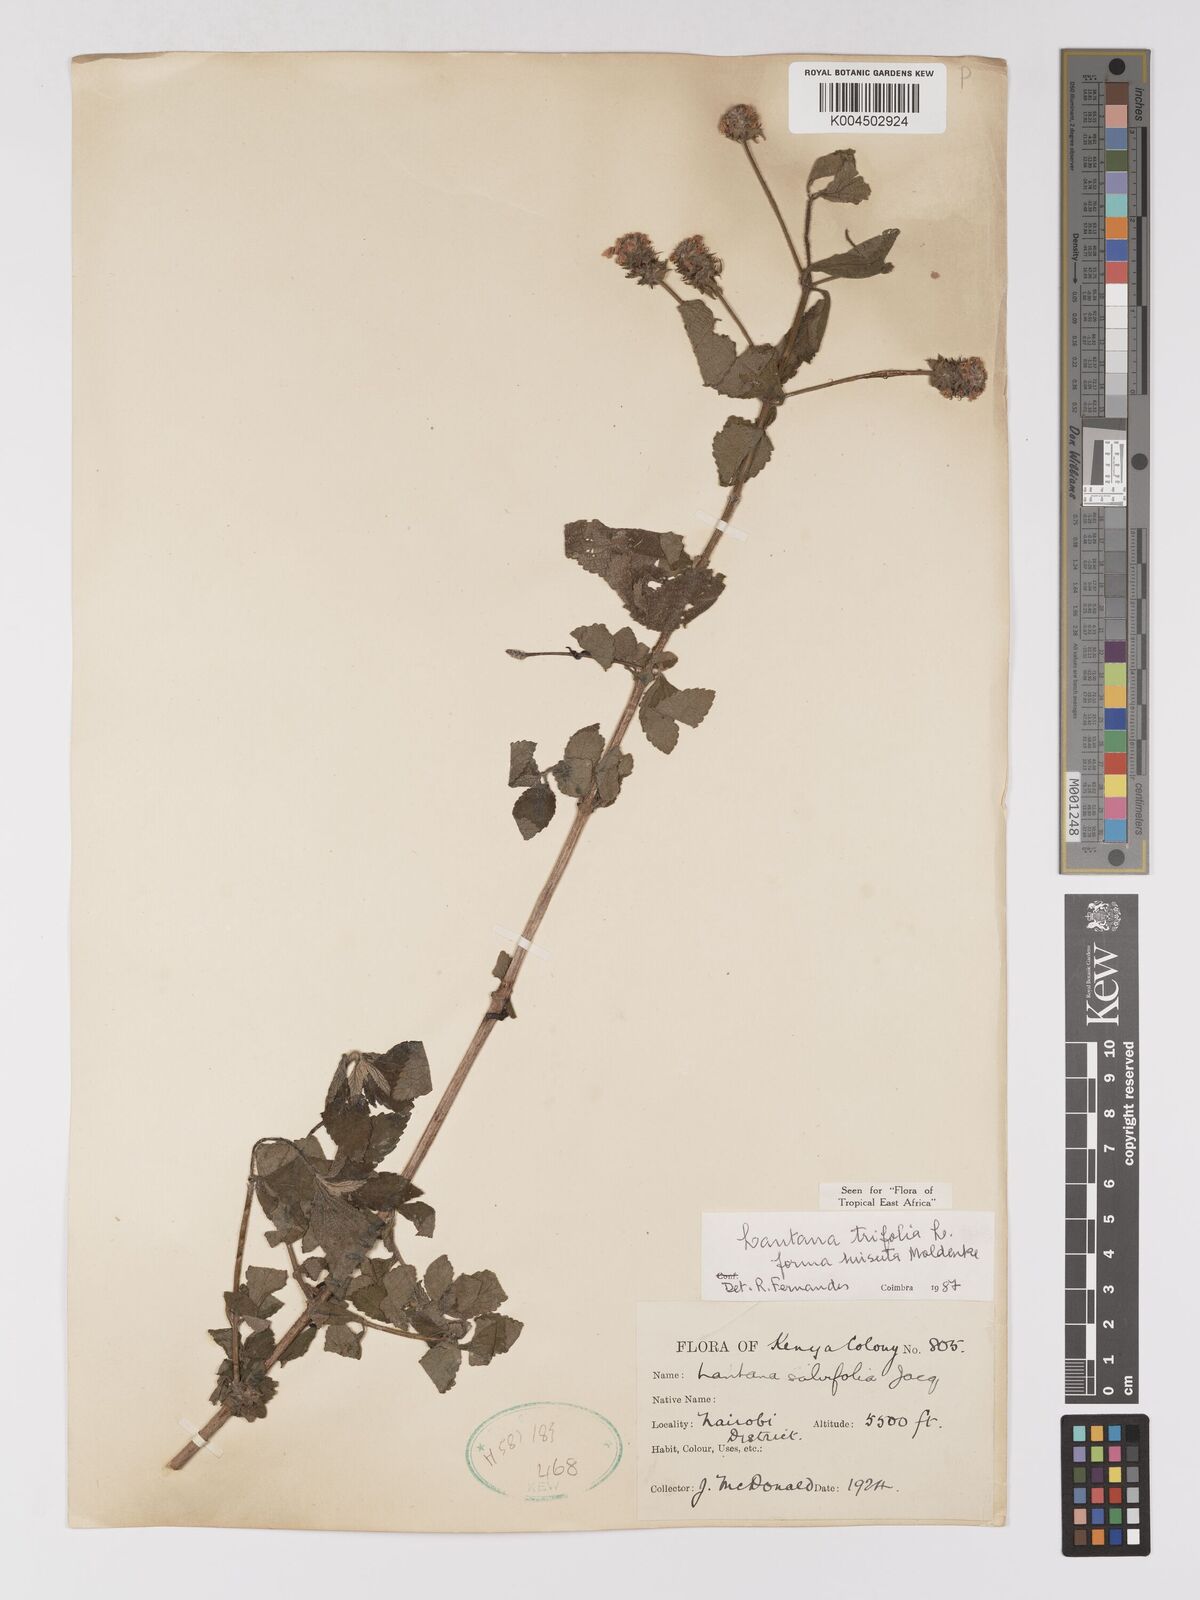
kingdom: Plantae
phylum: Tracheophyta
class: Magnoliopsida
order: Lamiales
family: Verbenaceae
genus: Lantana
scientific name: Lantana trifolia
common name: Sweet-sage
